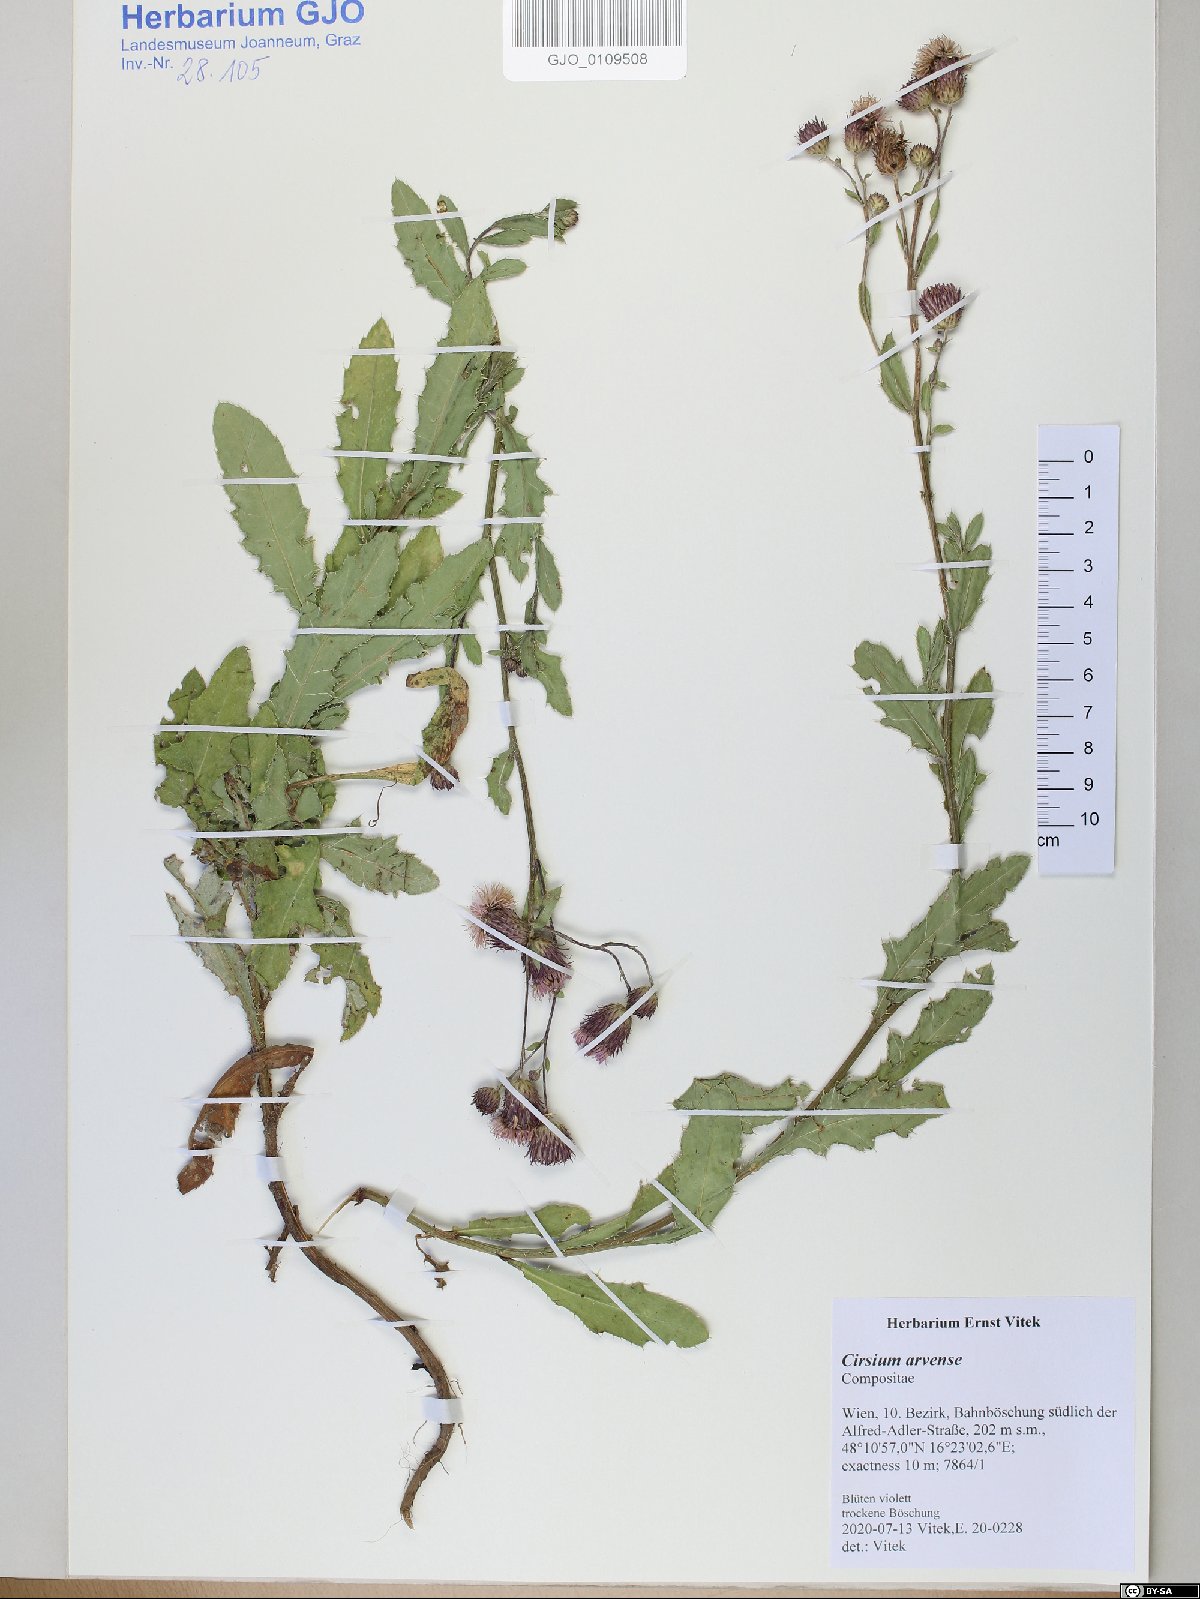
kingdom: Plantae
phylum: Tracheophyta
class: Magnoliopsida
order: Asterales
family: Asteraceae
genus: Cirsium
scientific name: Cirsium arvense
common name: Creeping thistle
